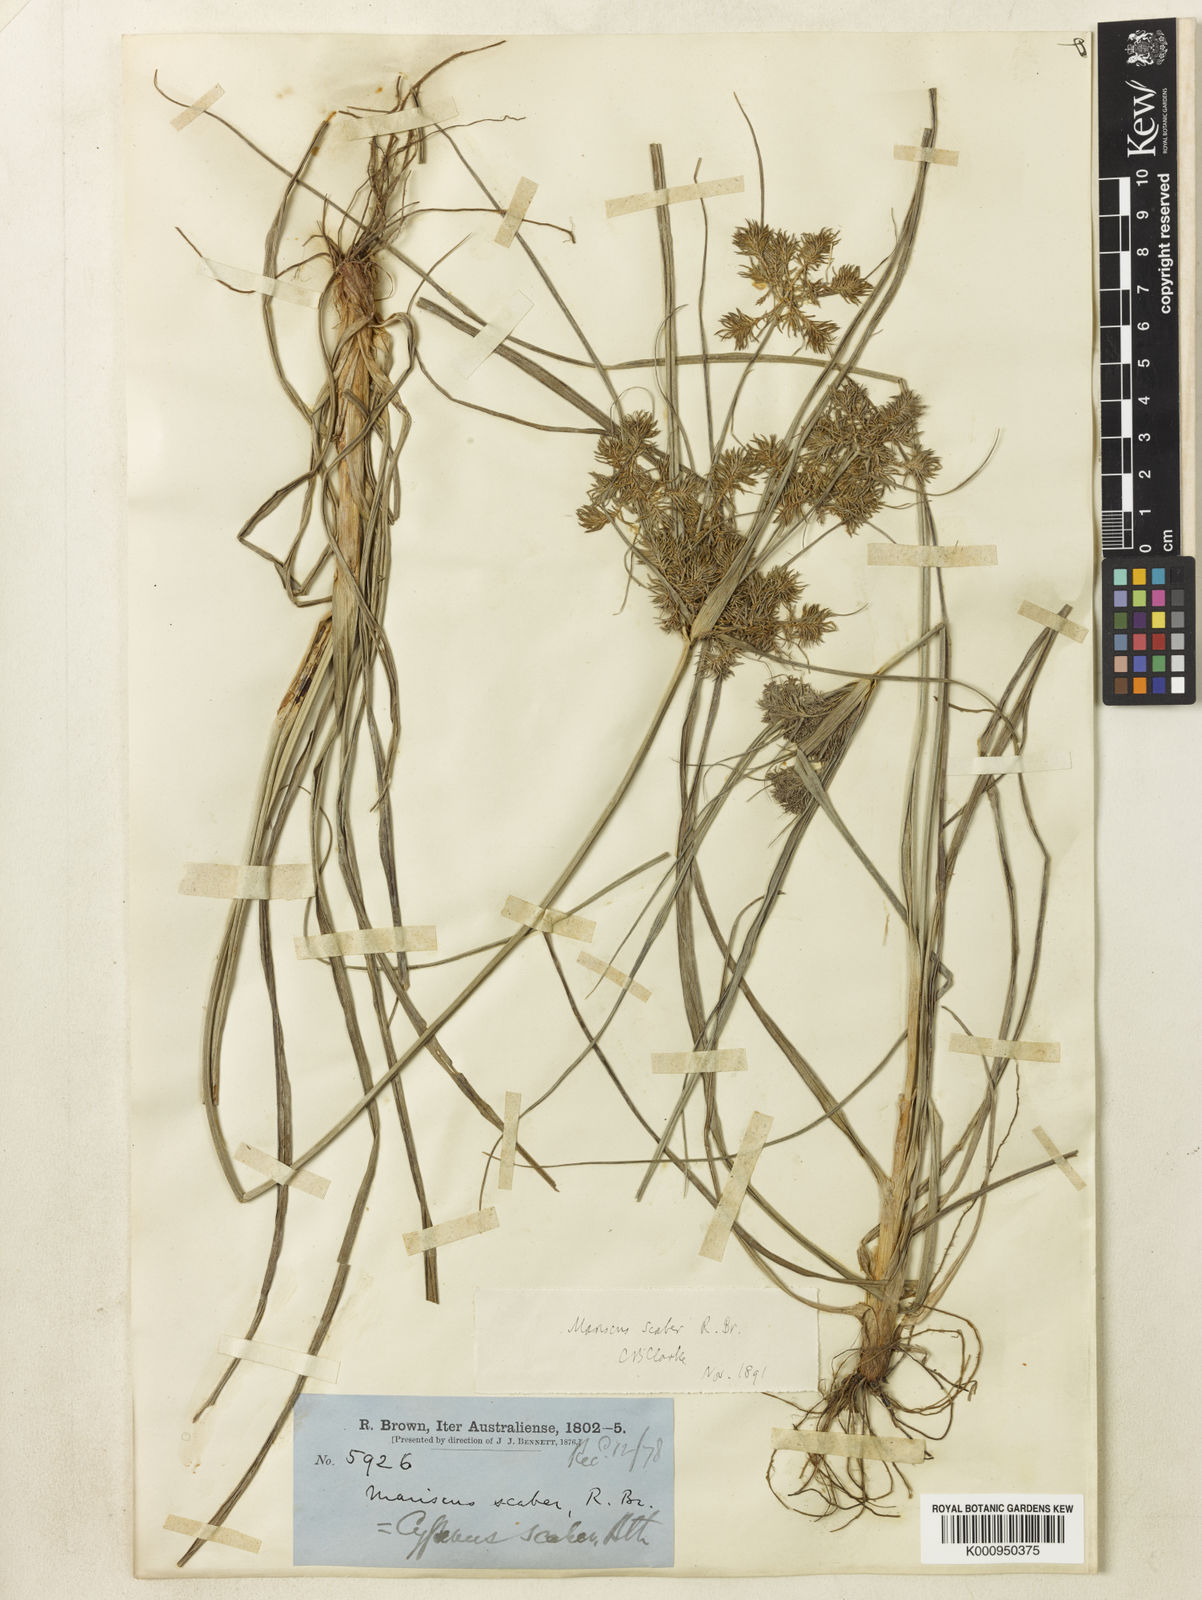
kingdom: Plantae
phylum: Tracheophyta
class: Liliopsida
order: Poales
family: Cyperaceae
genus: Cyperus
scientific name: Cyperus scaber
